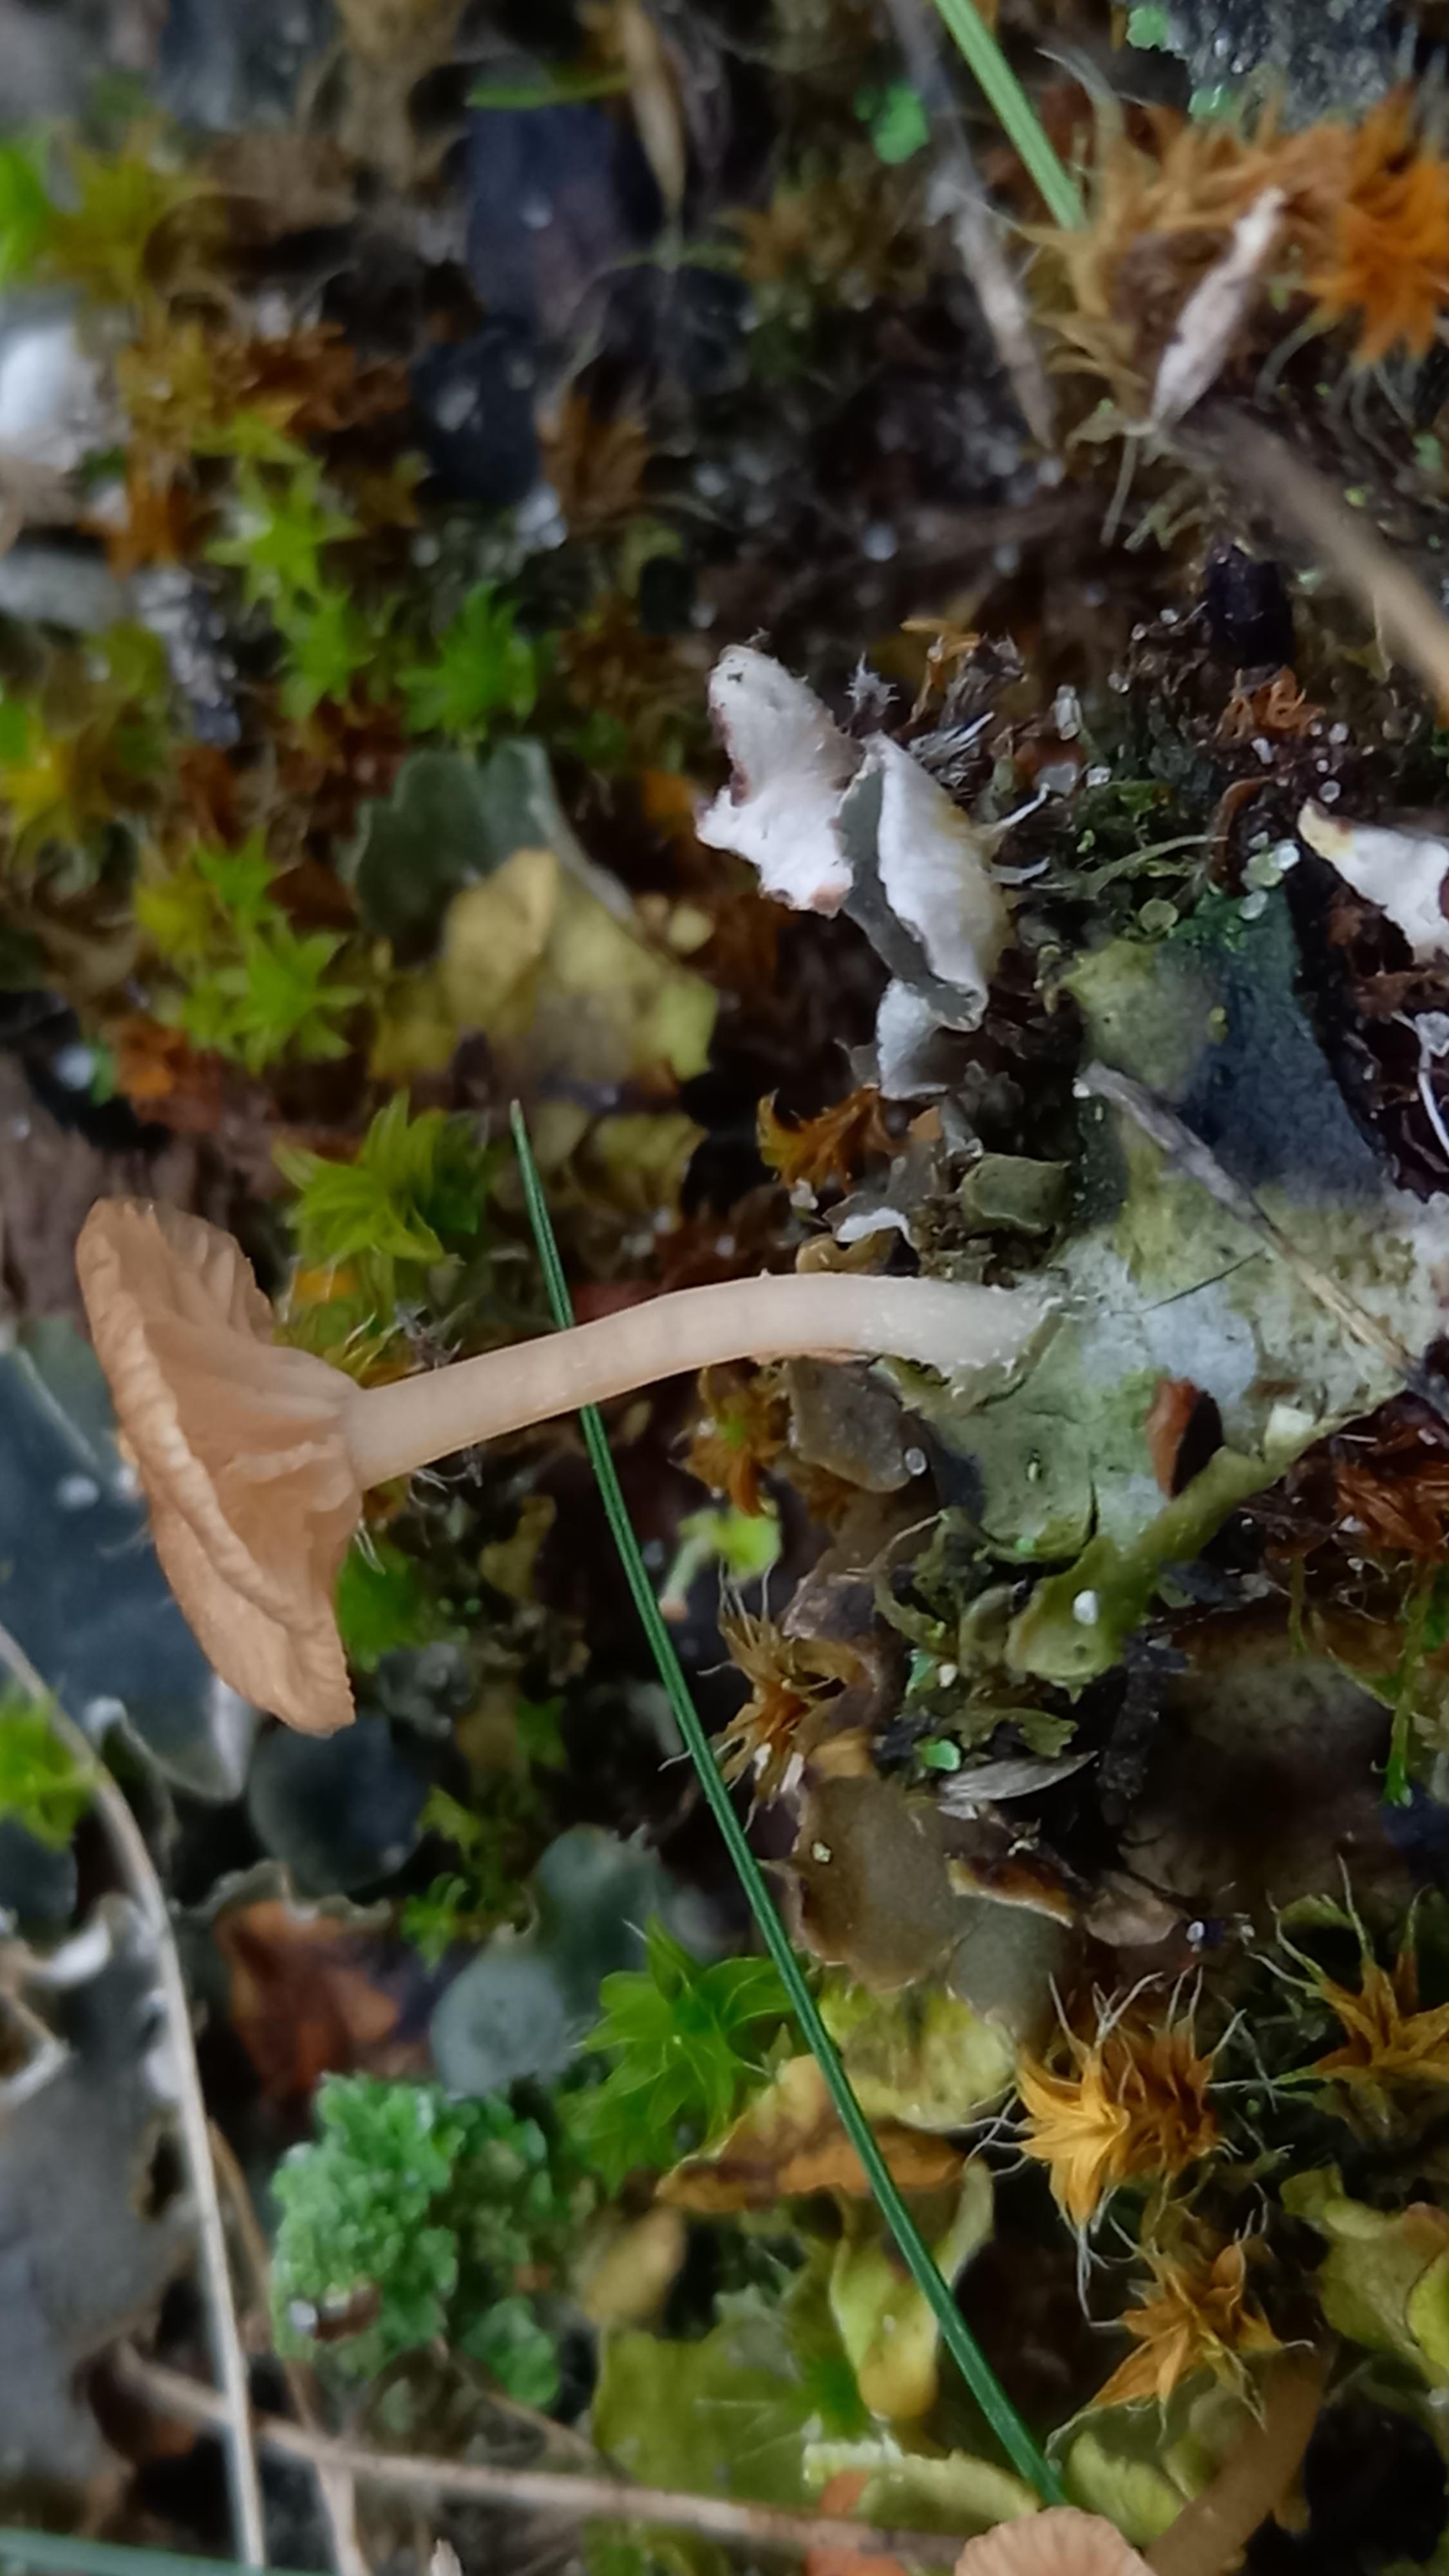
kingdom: Fungi
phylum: Basidiomycota
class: Agaricomycetes
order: Agaricales
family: Hygrophoraceae
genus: Arrhenia
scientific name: Arrhenia peltigerina
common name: skjoldlav-fontænehat
